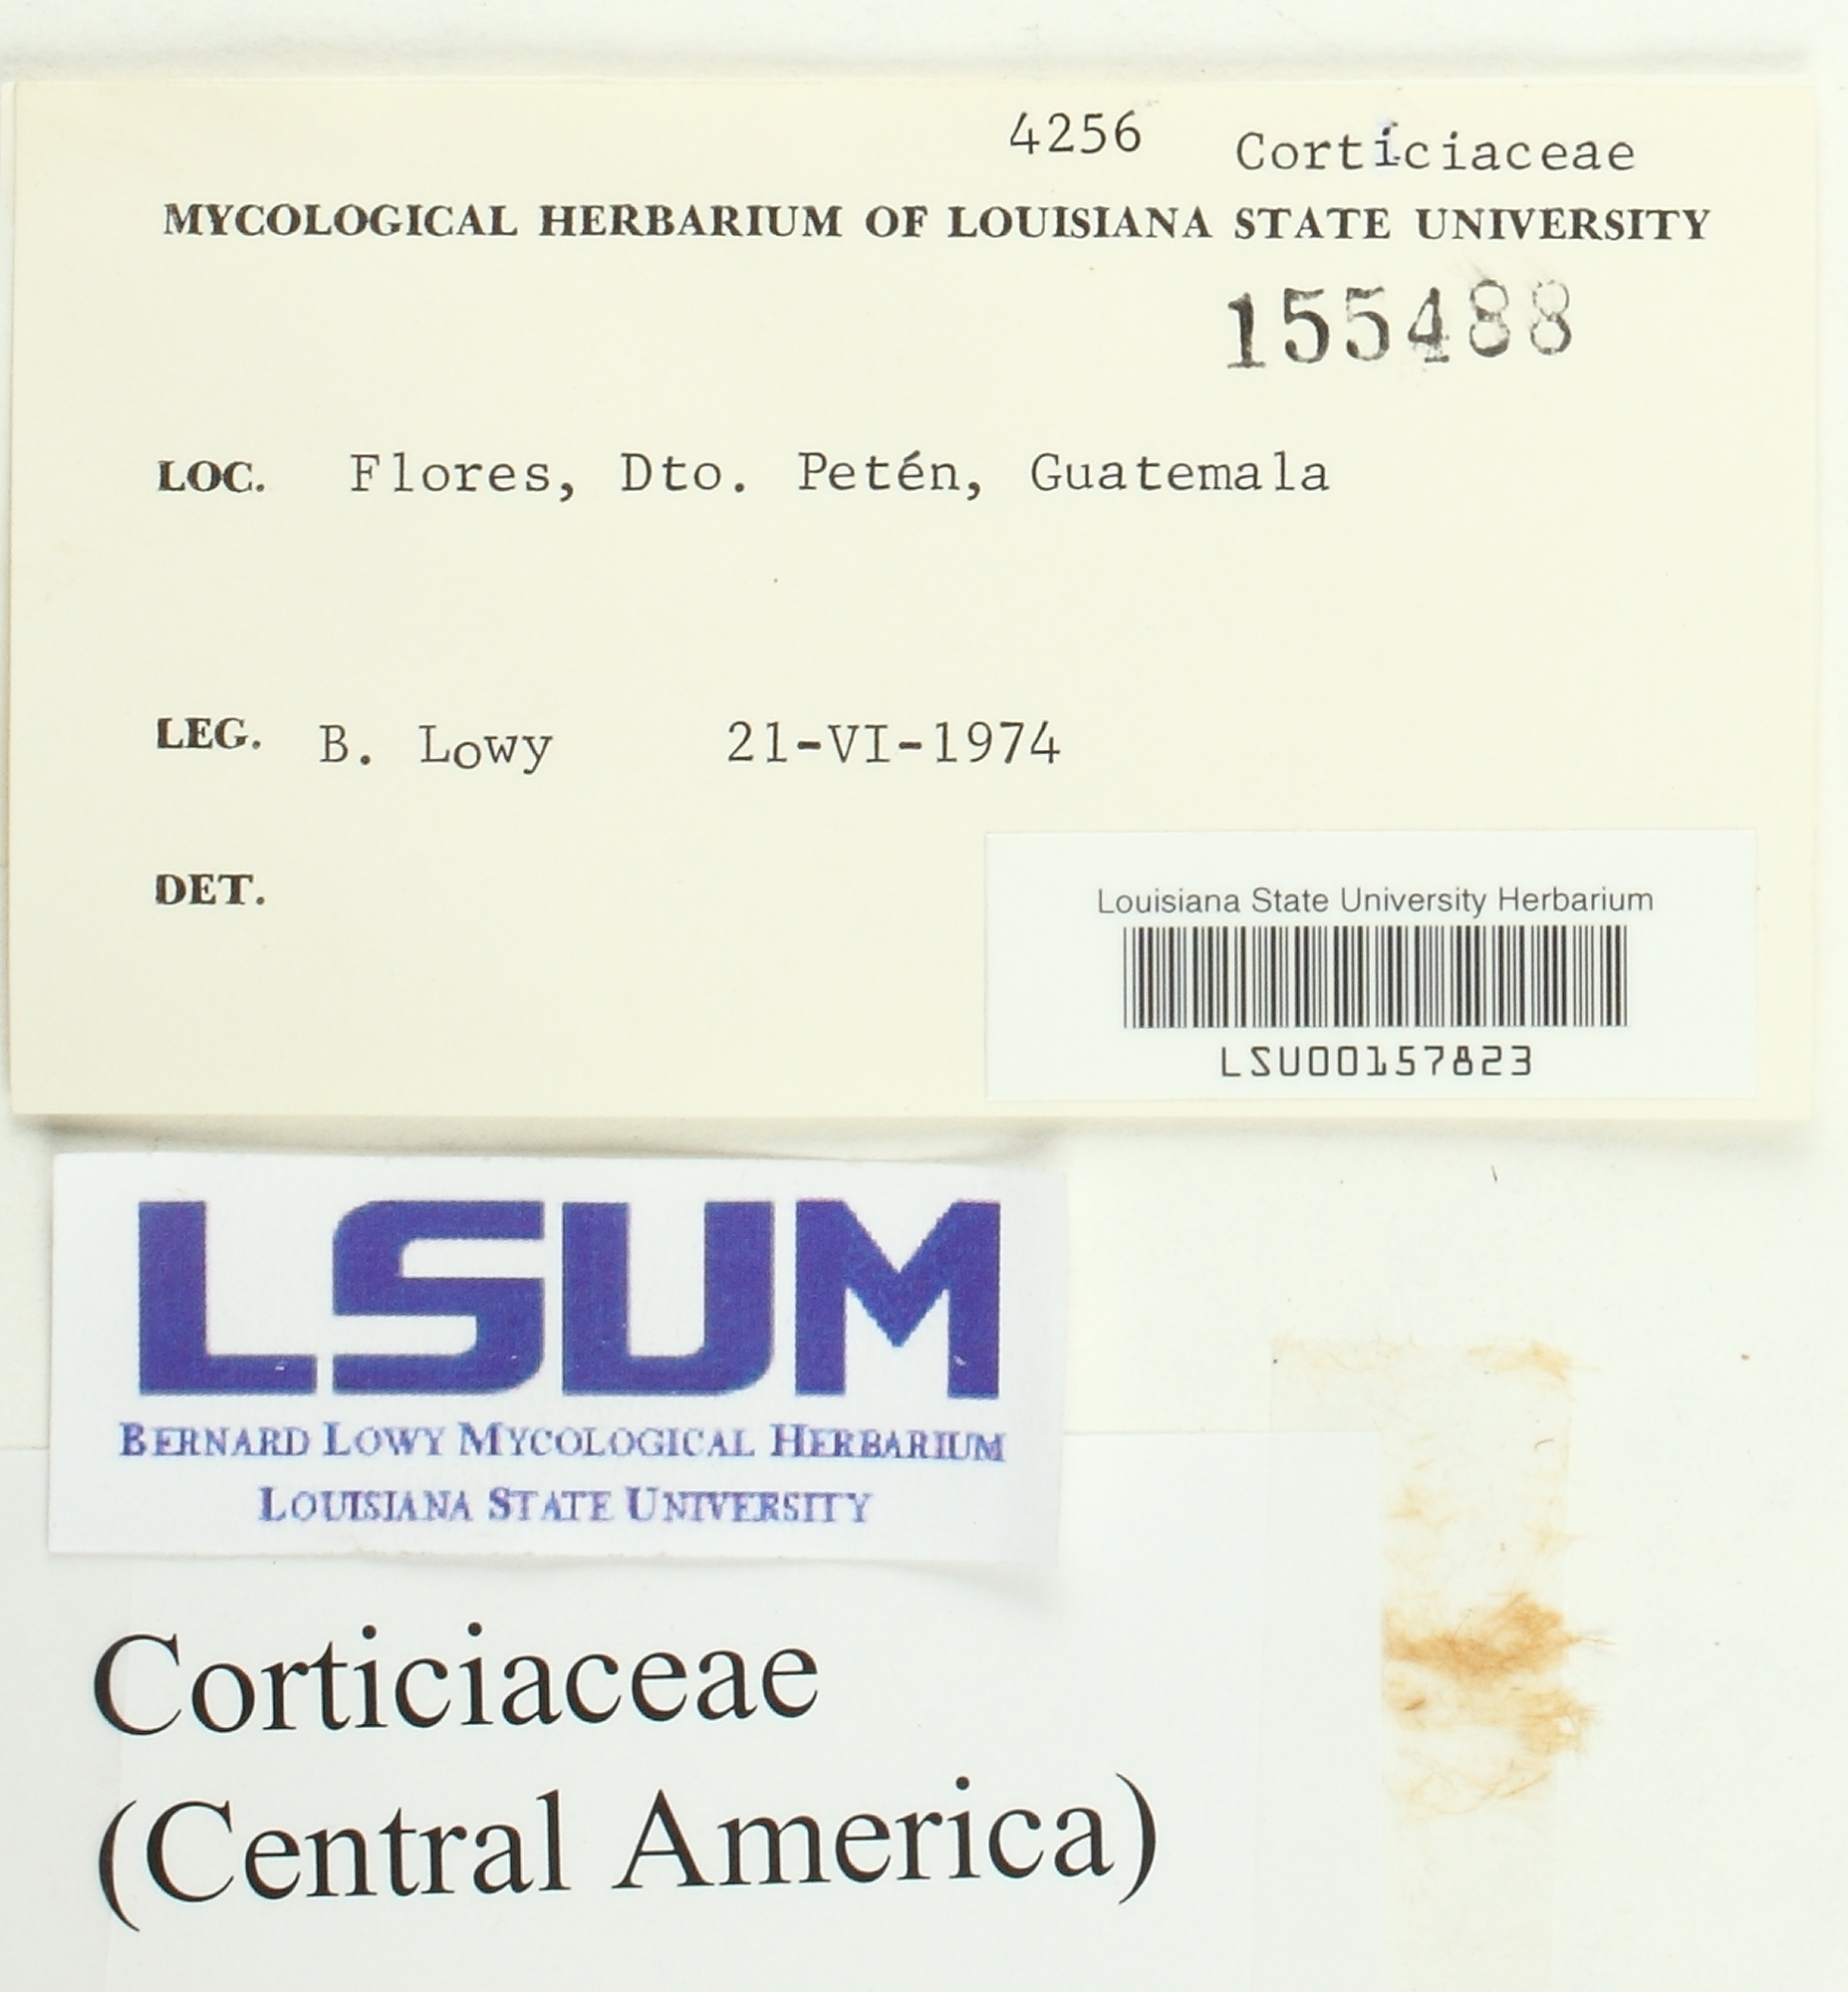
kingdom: Fungi
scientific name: Fungi
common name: Fungi
